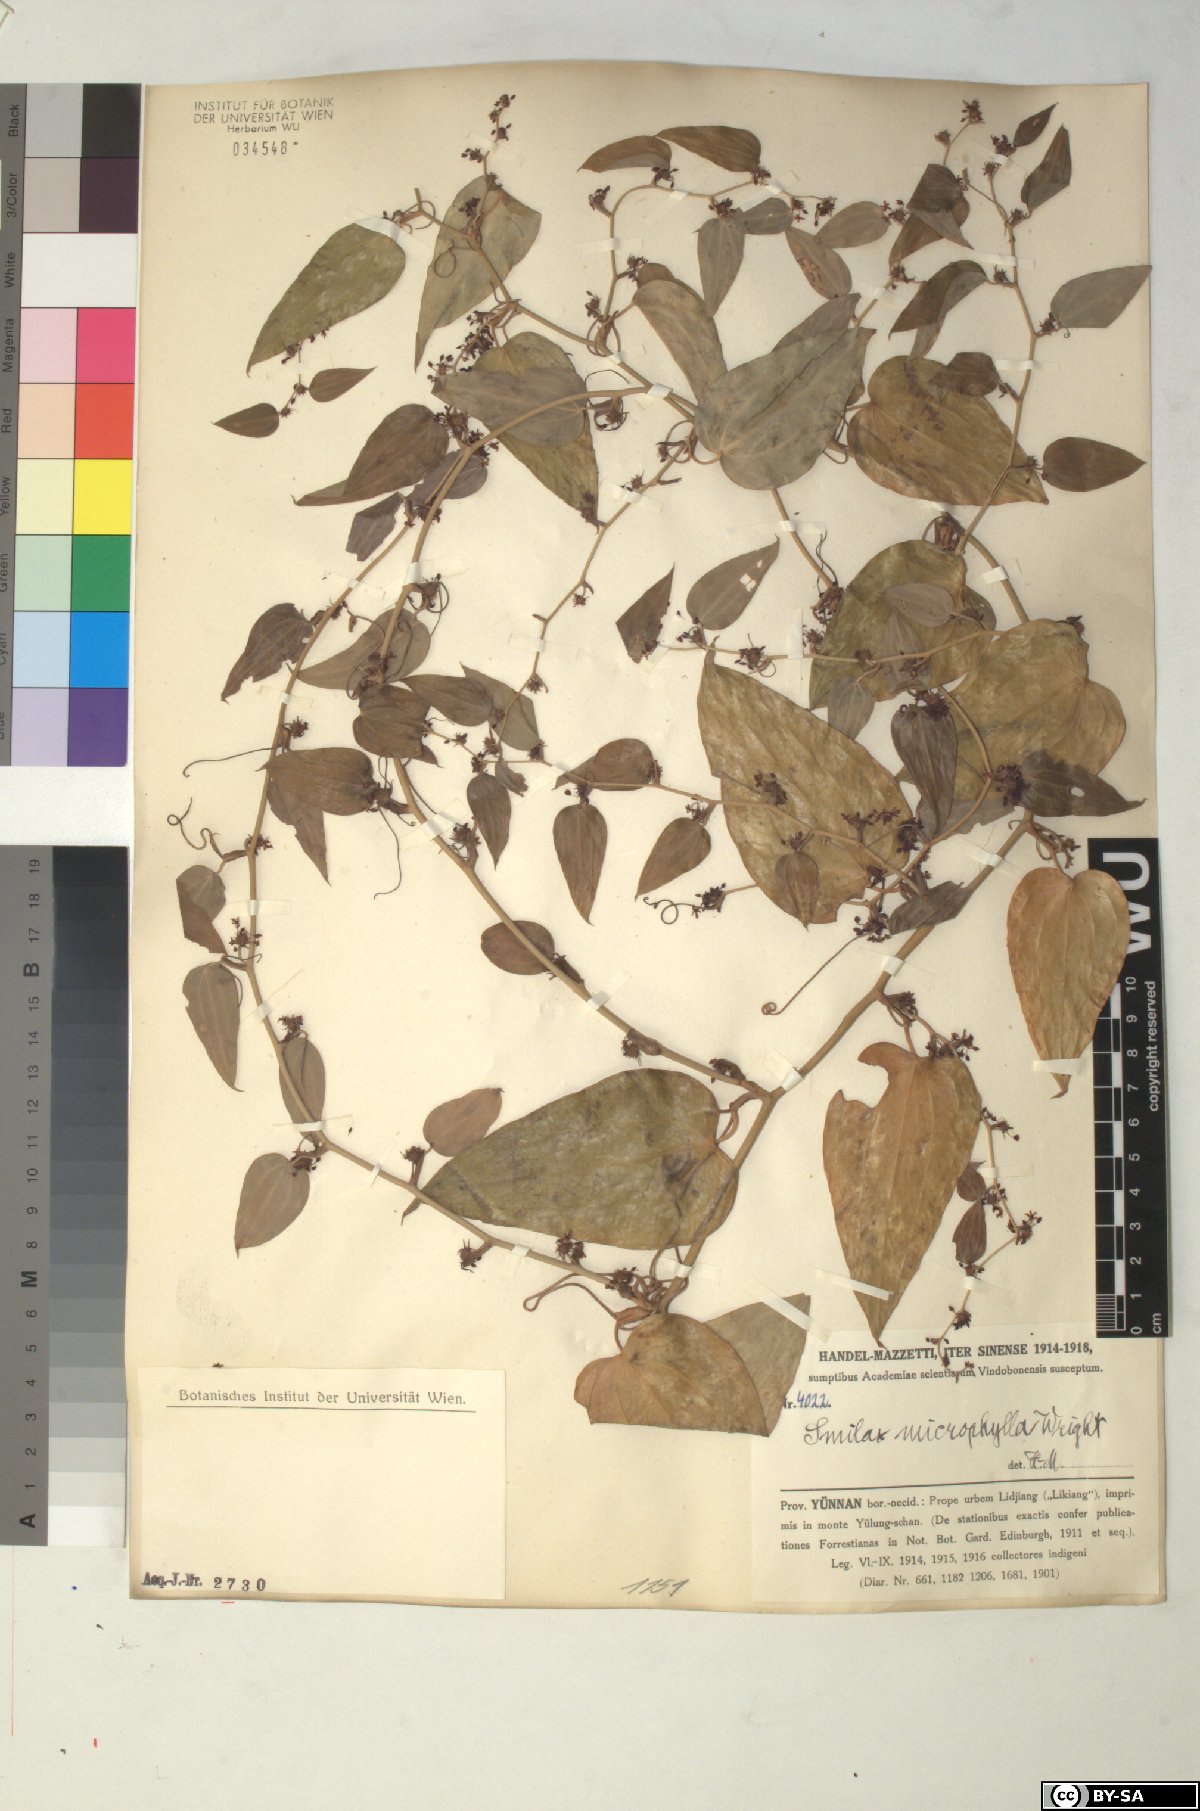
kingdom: Plantae
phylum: Tracheophyta
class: Liliopsida
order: Liliales
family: Smilacaceae
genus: Smilax
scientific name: Smilax microphylla
